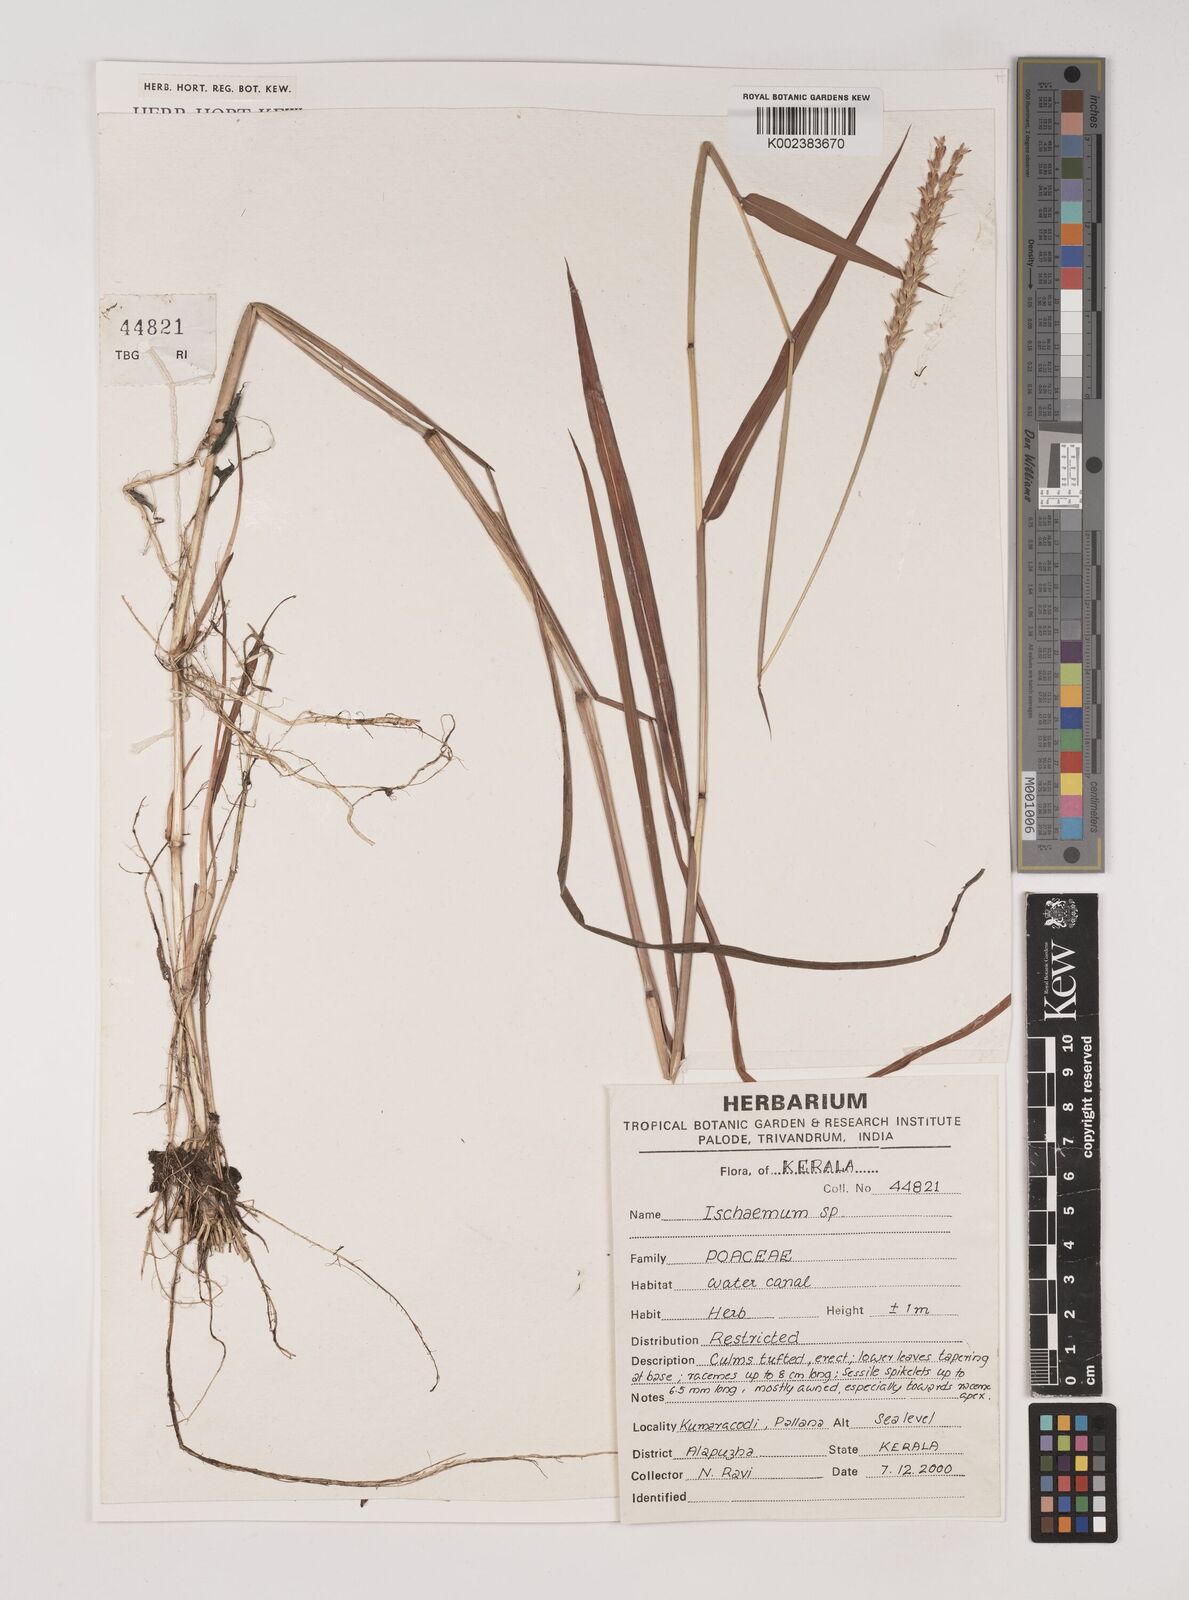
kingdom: Plantae
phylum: Tracheophyta
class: Liliopsida
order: Poales
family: Poaceae
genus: Ischaemum
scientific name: Ischaemum
